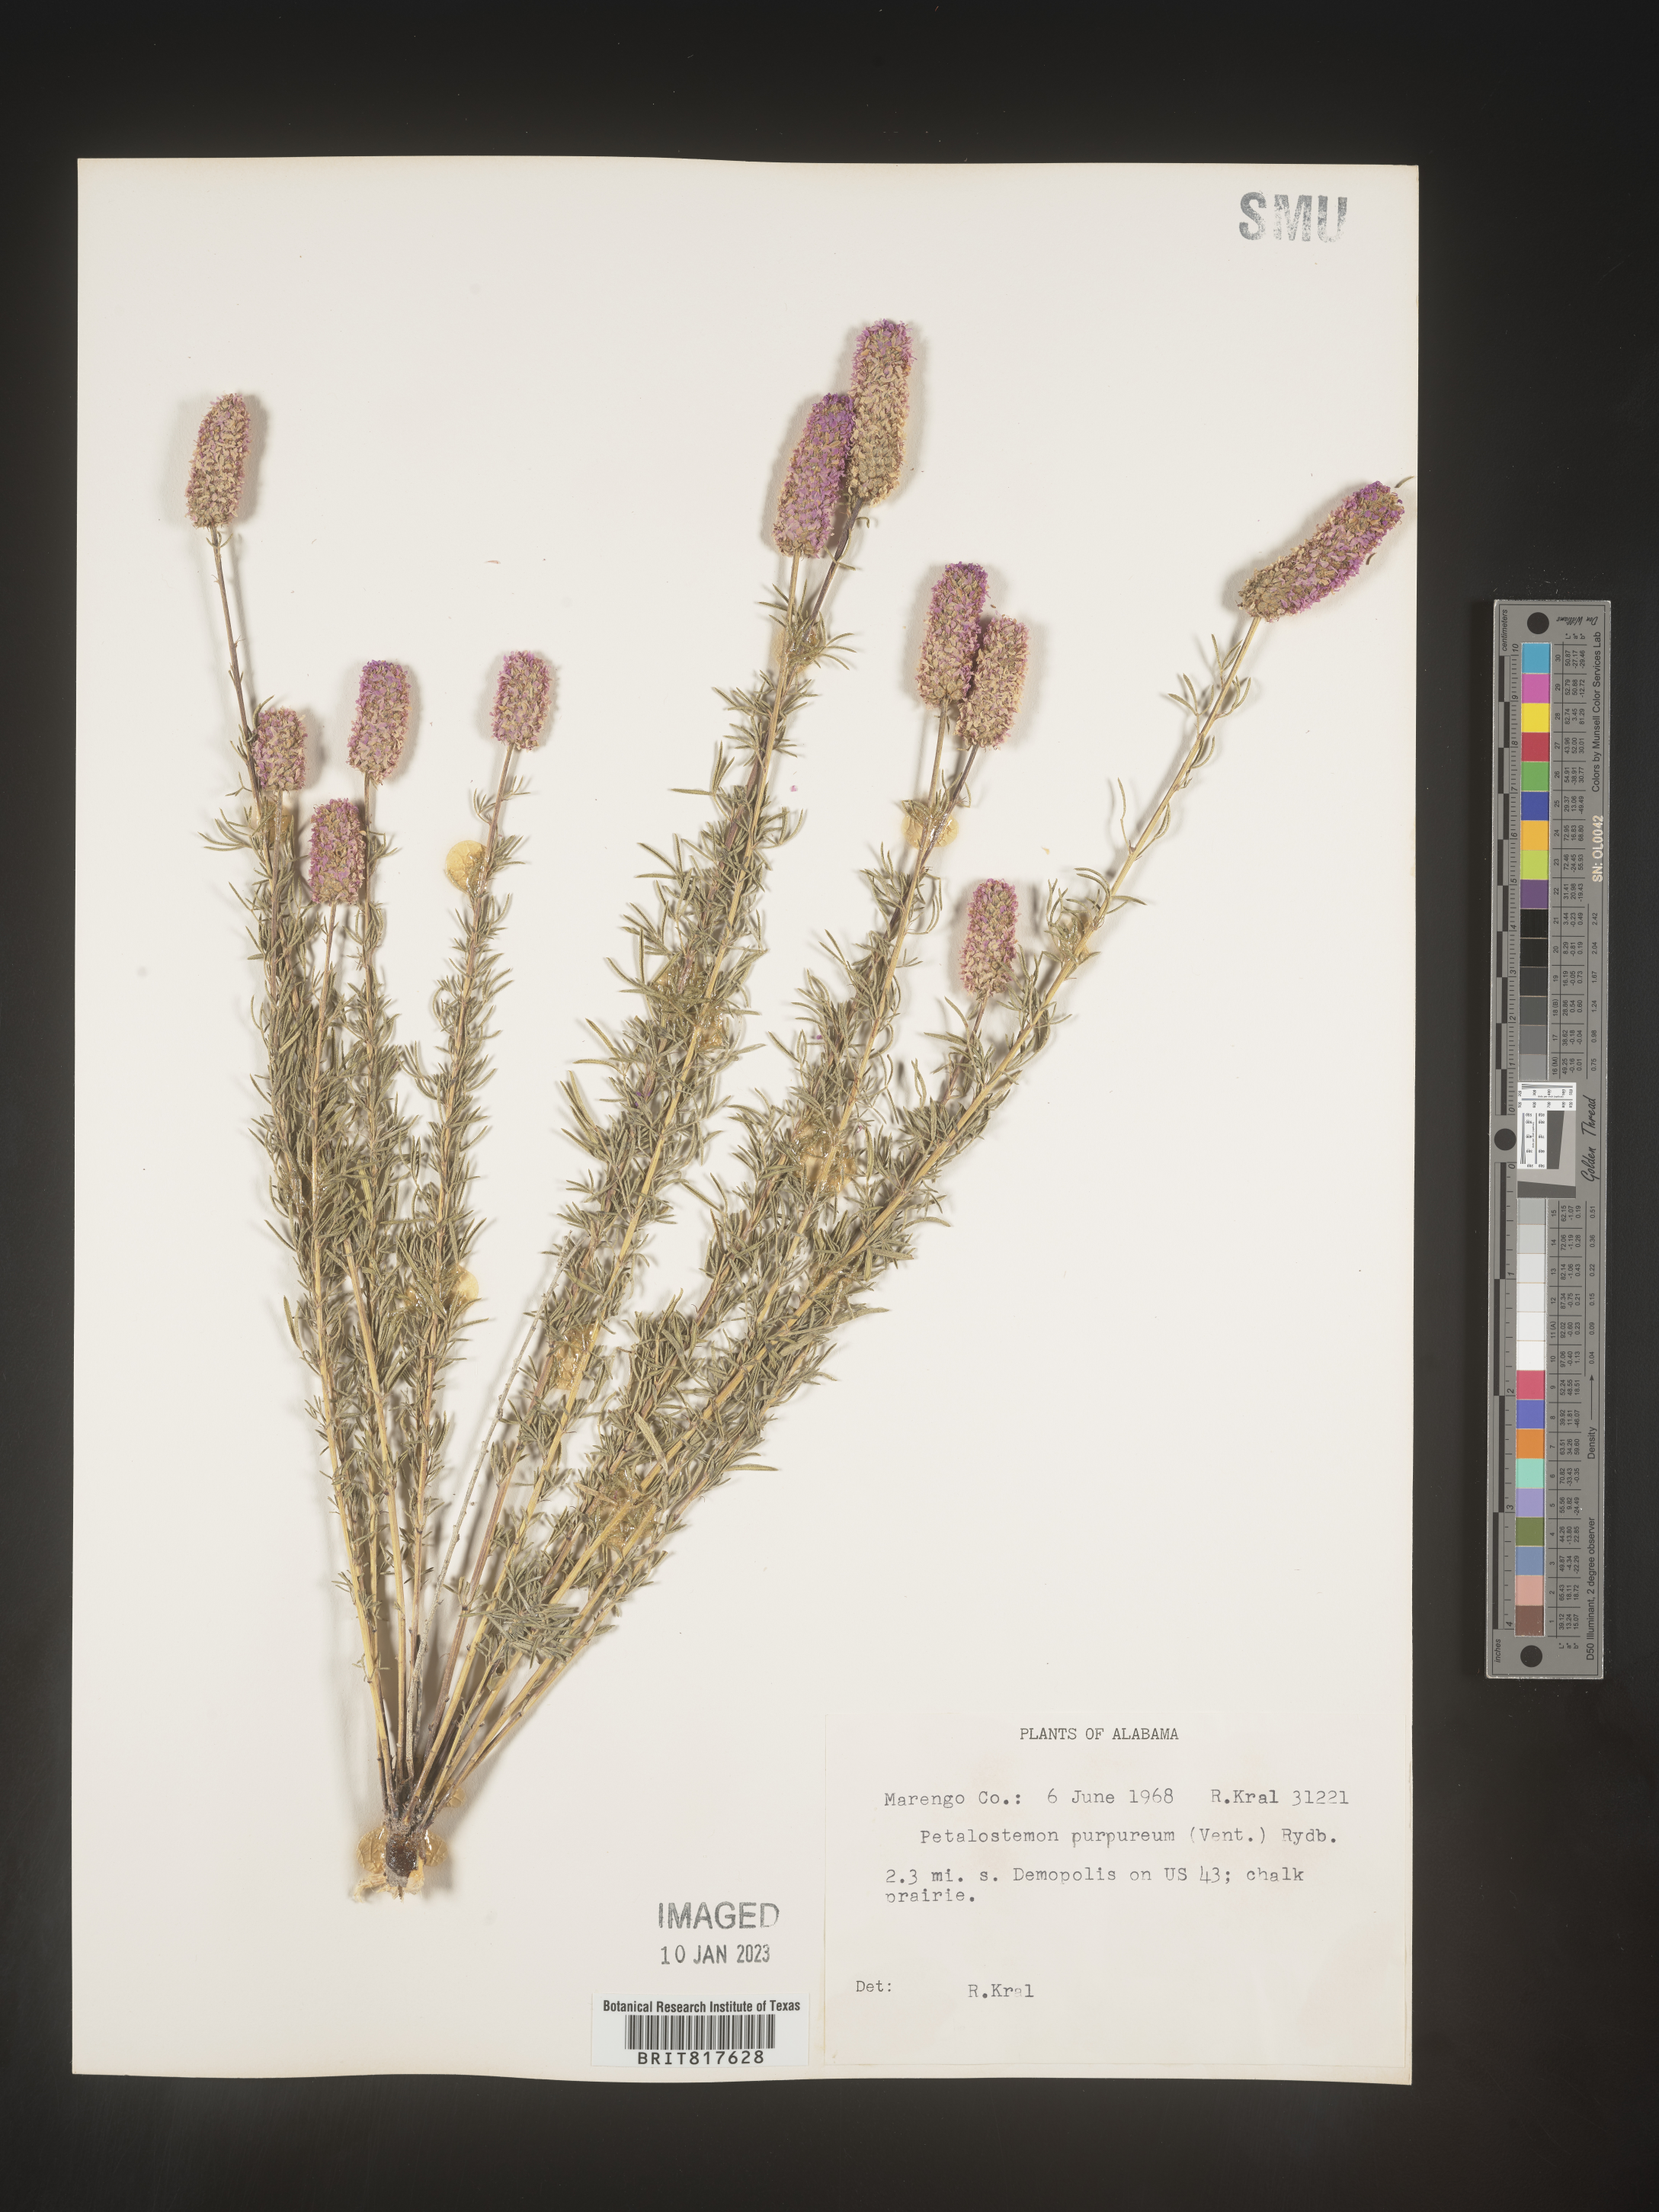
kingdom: Plantae
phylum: Tracheophyta
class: Magnoliopsida
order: Fabales
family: Fabaceae
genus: Dalea
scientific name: Dalea purpurea
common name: Purple prairie-clover
